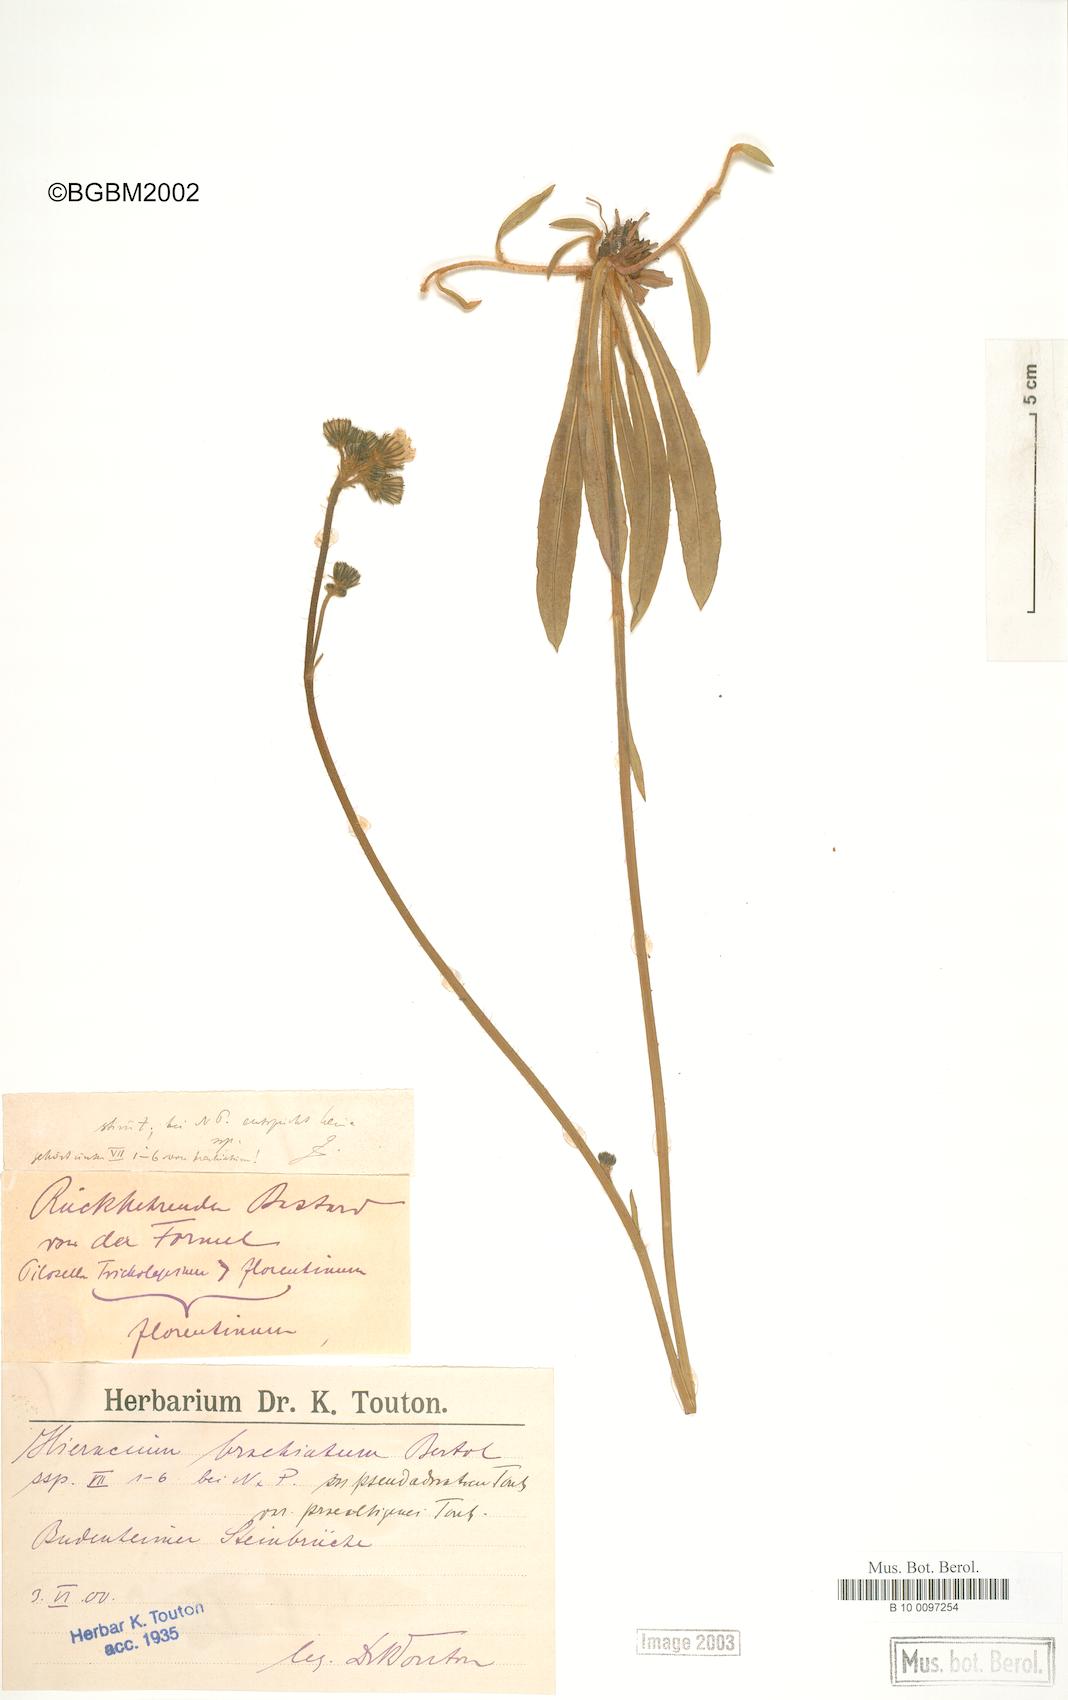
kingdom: Plantae
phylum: Tracheophyta
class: Magnoliopsida
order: Asterales
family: Asteraceae
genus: Pilosella
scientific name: Pilosella acutifolia
